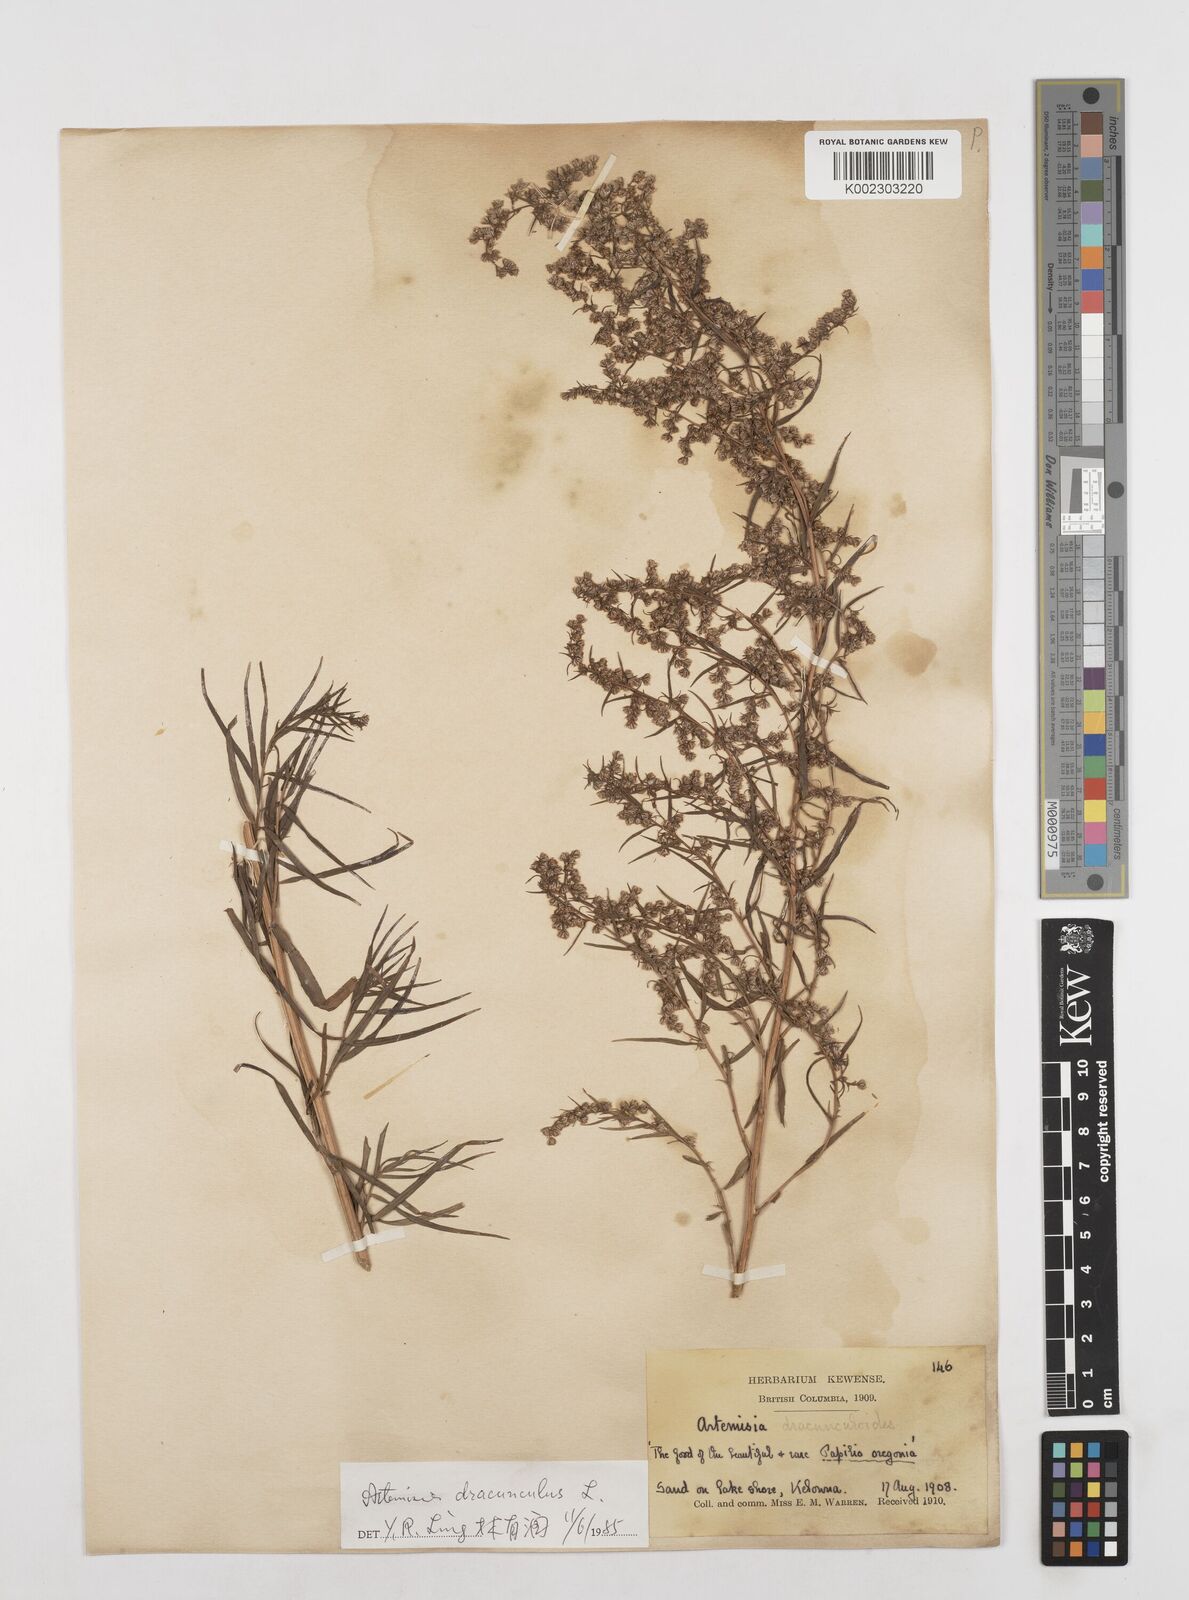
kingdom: Plantae
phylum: Tracheophyta
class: Magnoliopsida
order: Asterales
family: Asteraceae
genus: Artemisia
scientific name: Artemisia dracunculus
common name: Tarragon
